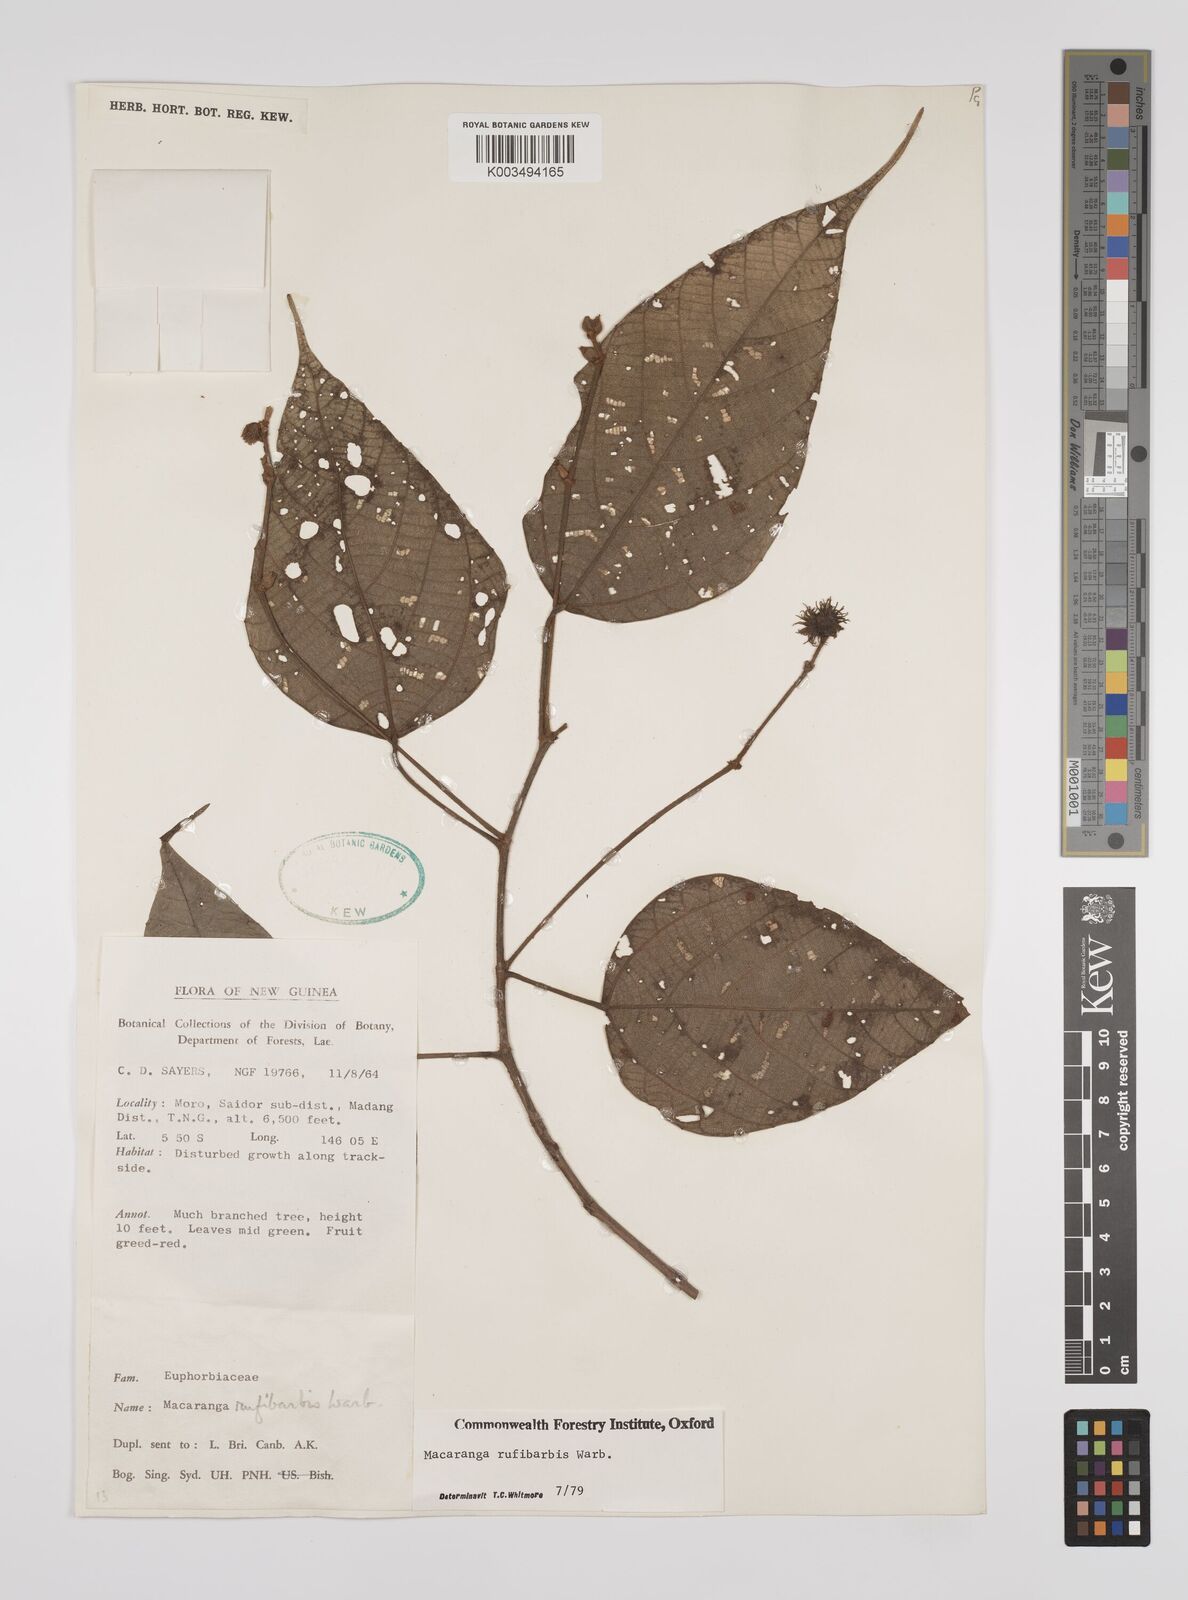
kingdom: Plantae
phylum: Tracheophyta
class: Magnoliopsida
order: Malpighiales
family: Euphorbiaceae
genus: Macaranga
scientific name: Macaranga rufibarbis
